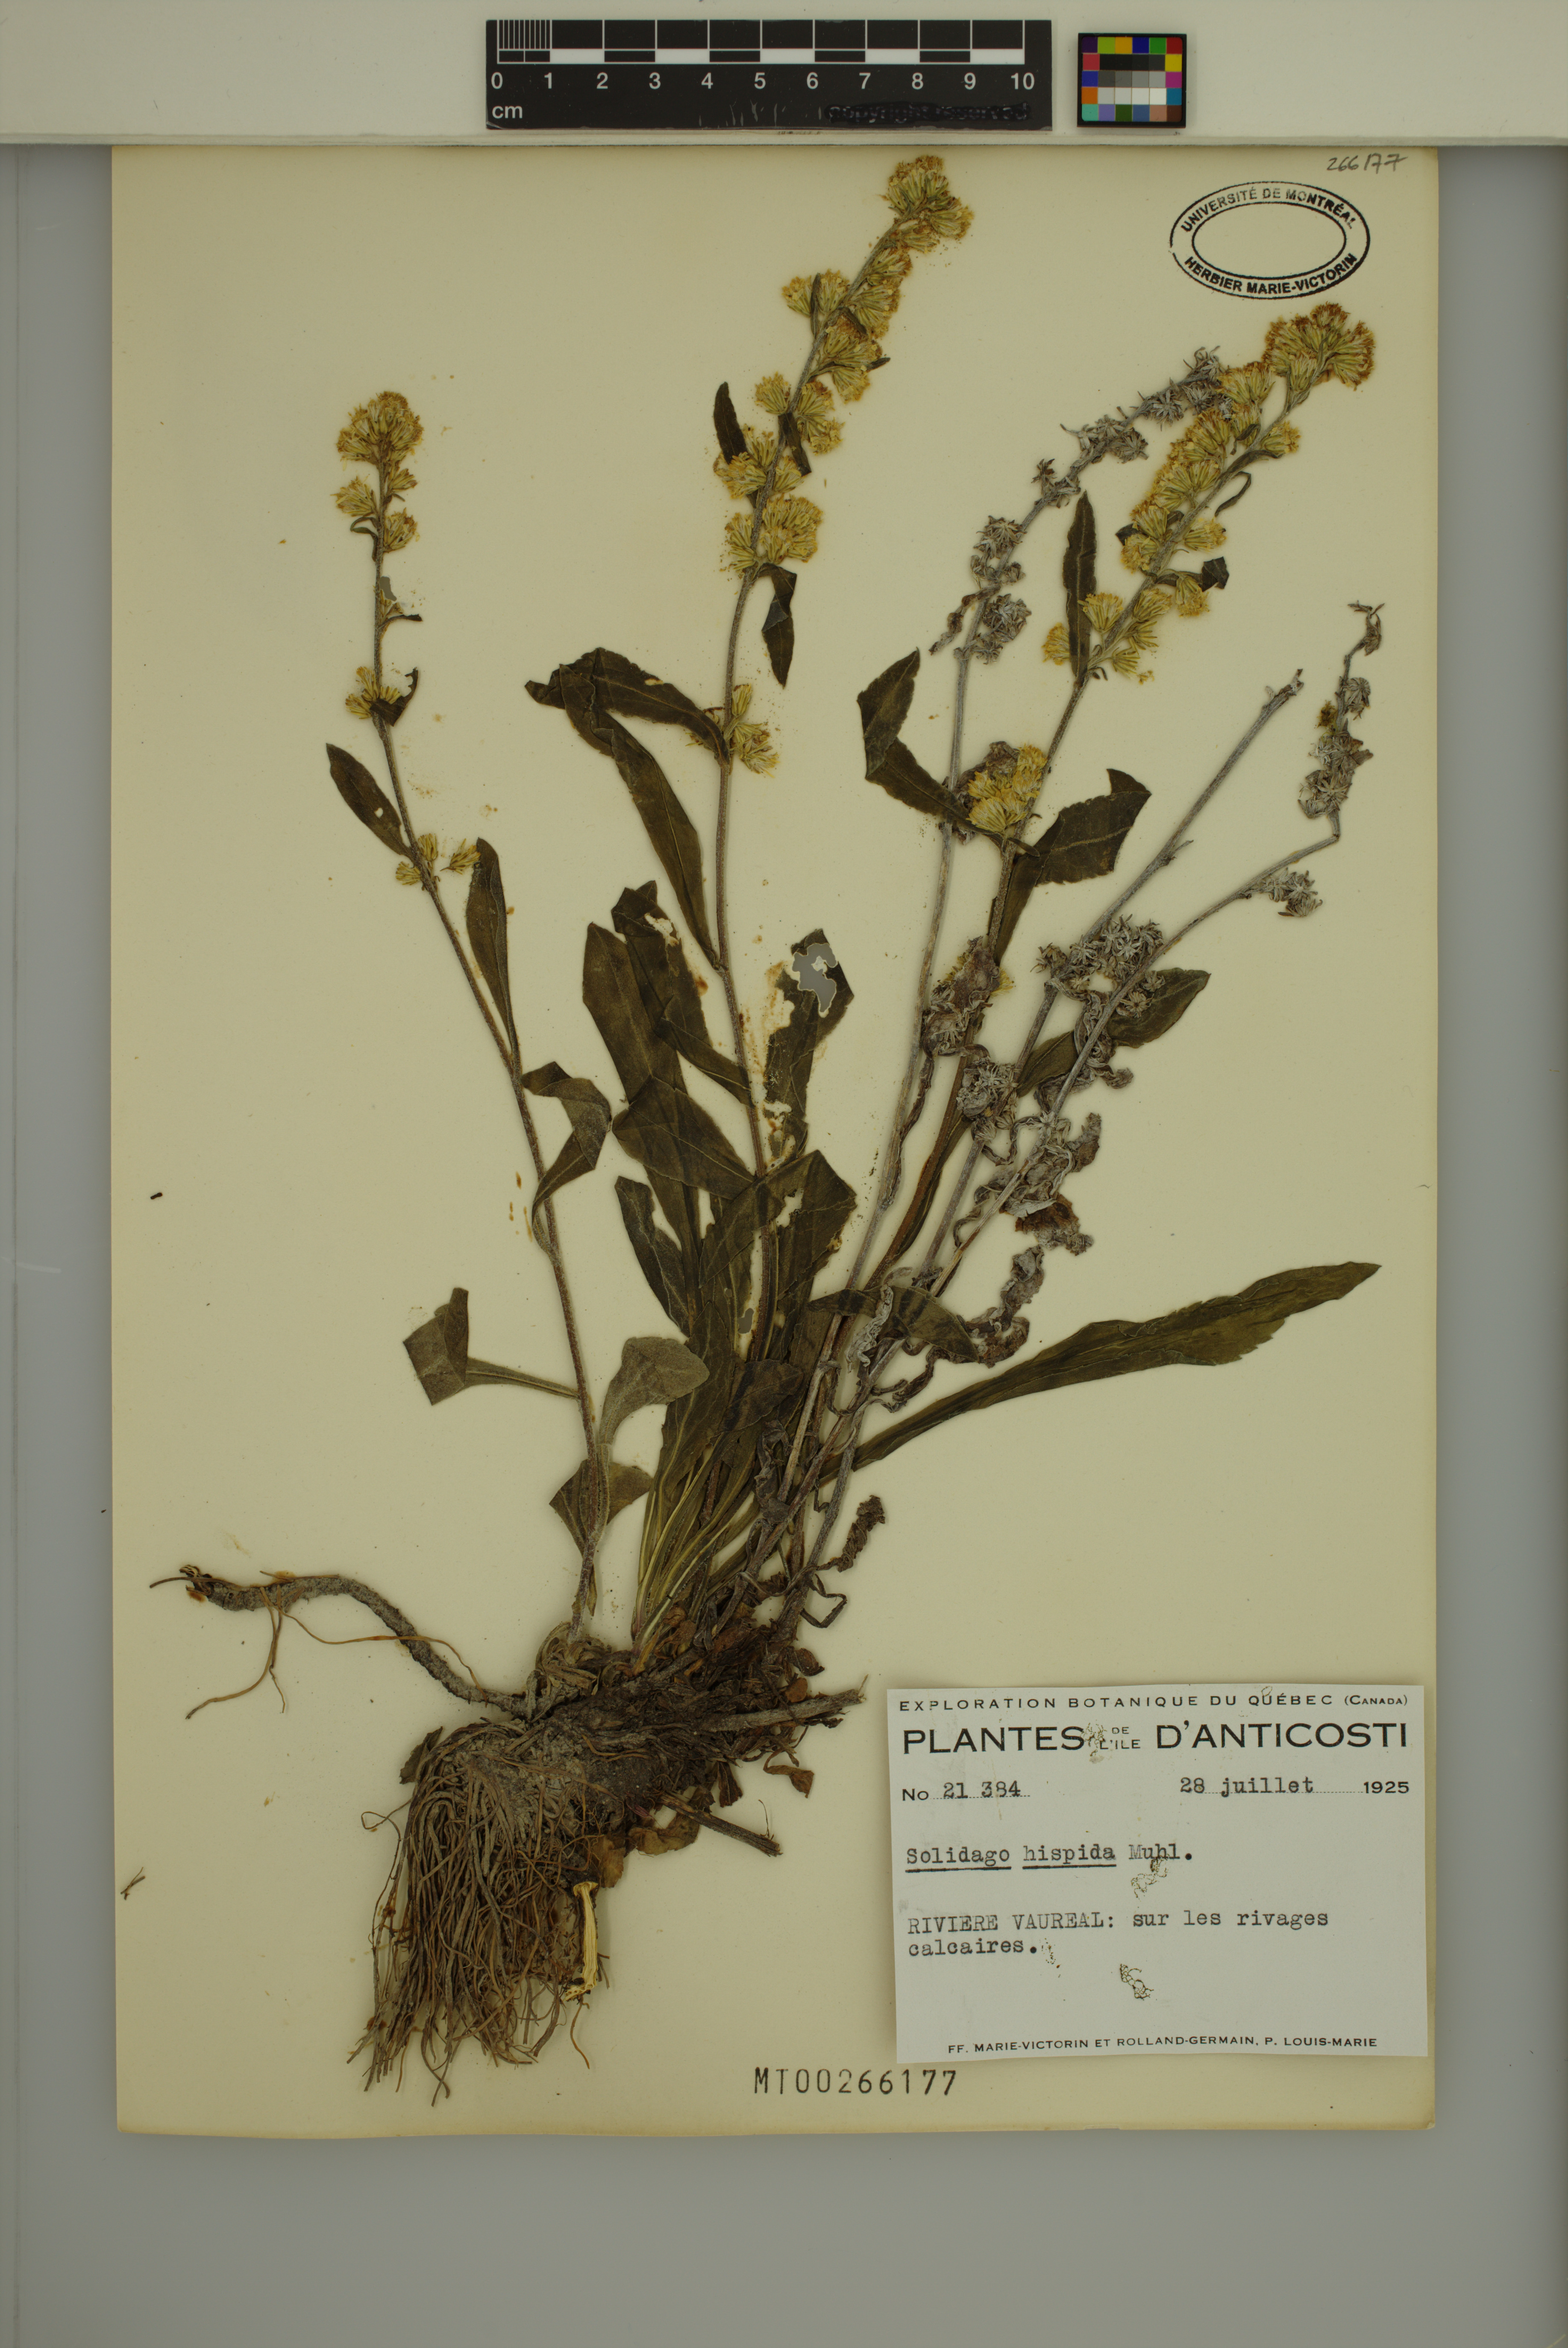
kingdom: Plantae
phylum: Tracheophyta
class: Magnoliopsida
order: Asterales
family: Asteraceae
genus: Solidago
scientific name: Solidago hispida
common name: Hairy goldenrod
